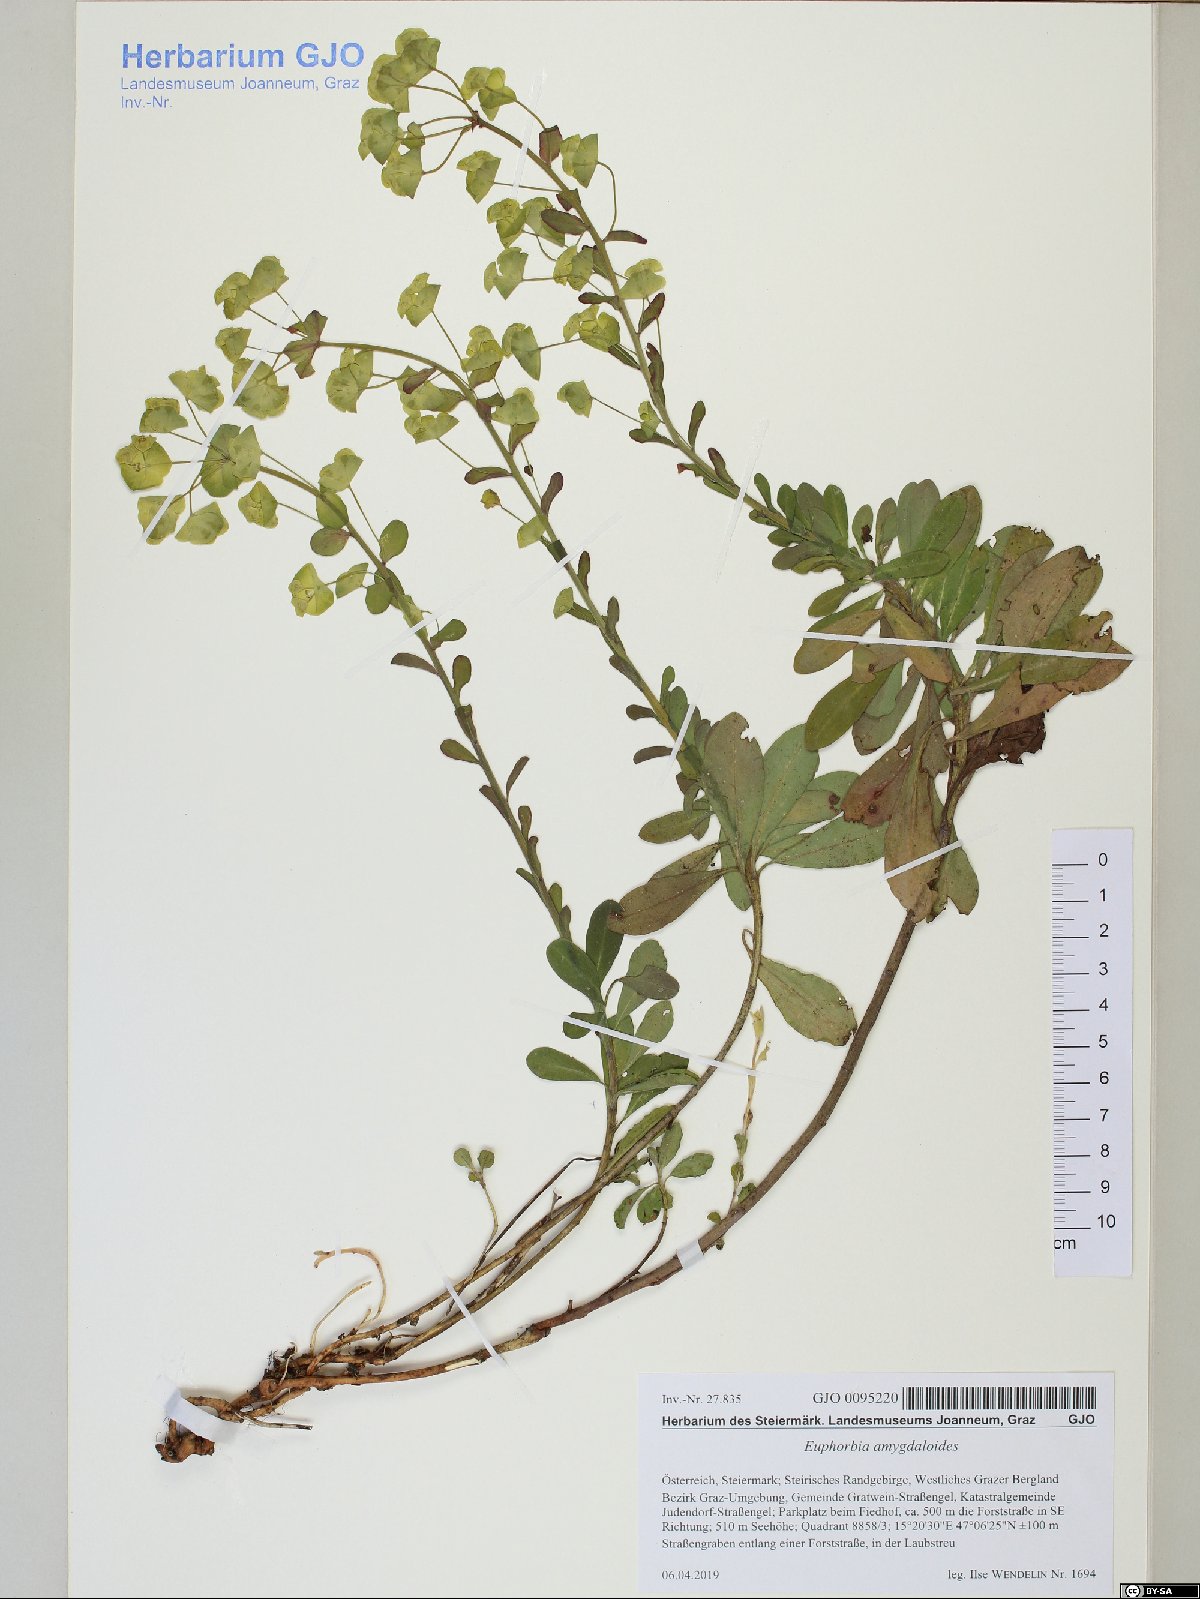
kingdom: Plantae
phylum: Tracheophyta
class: Magnoliopsida
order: Malpighiales
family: Euphorbiaceae
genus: Euphorbia
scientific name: Euphorbia amygdaloides
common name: Wood spurge
